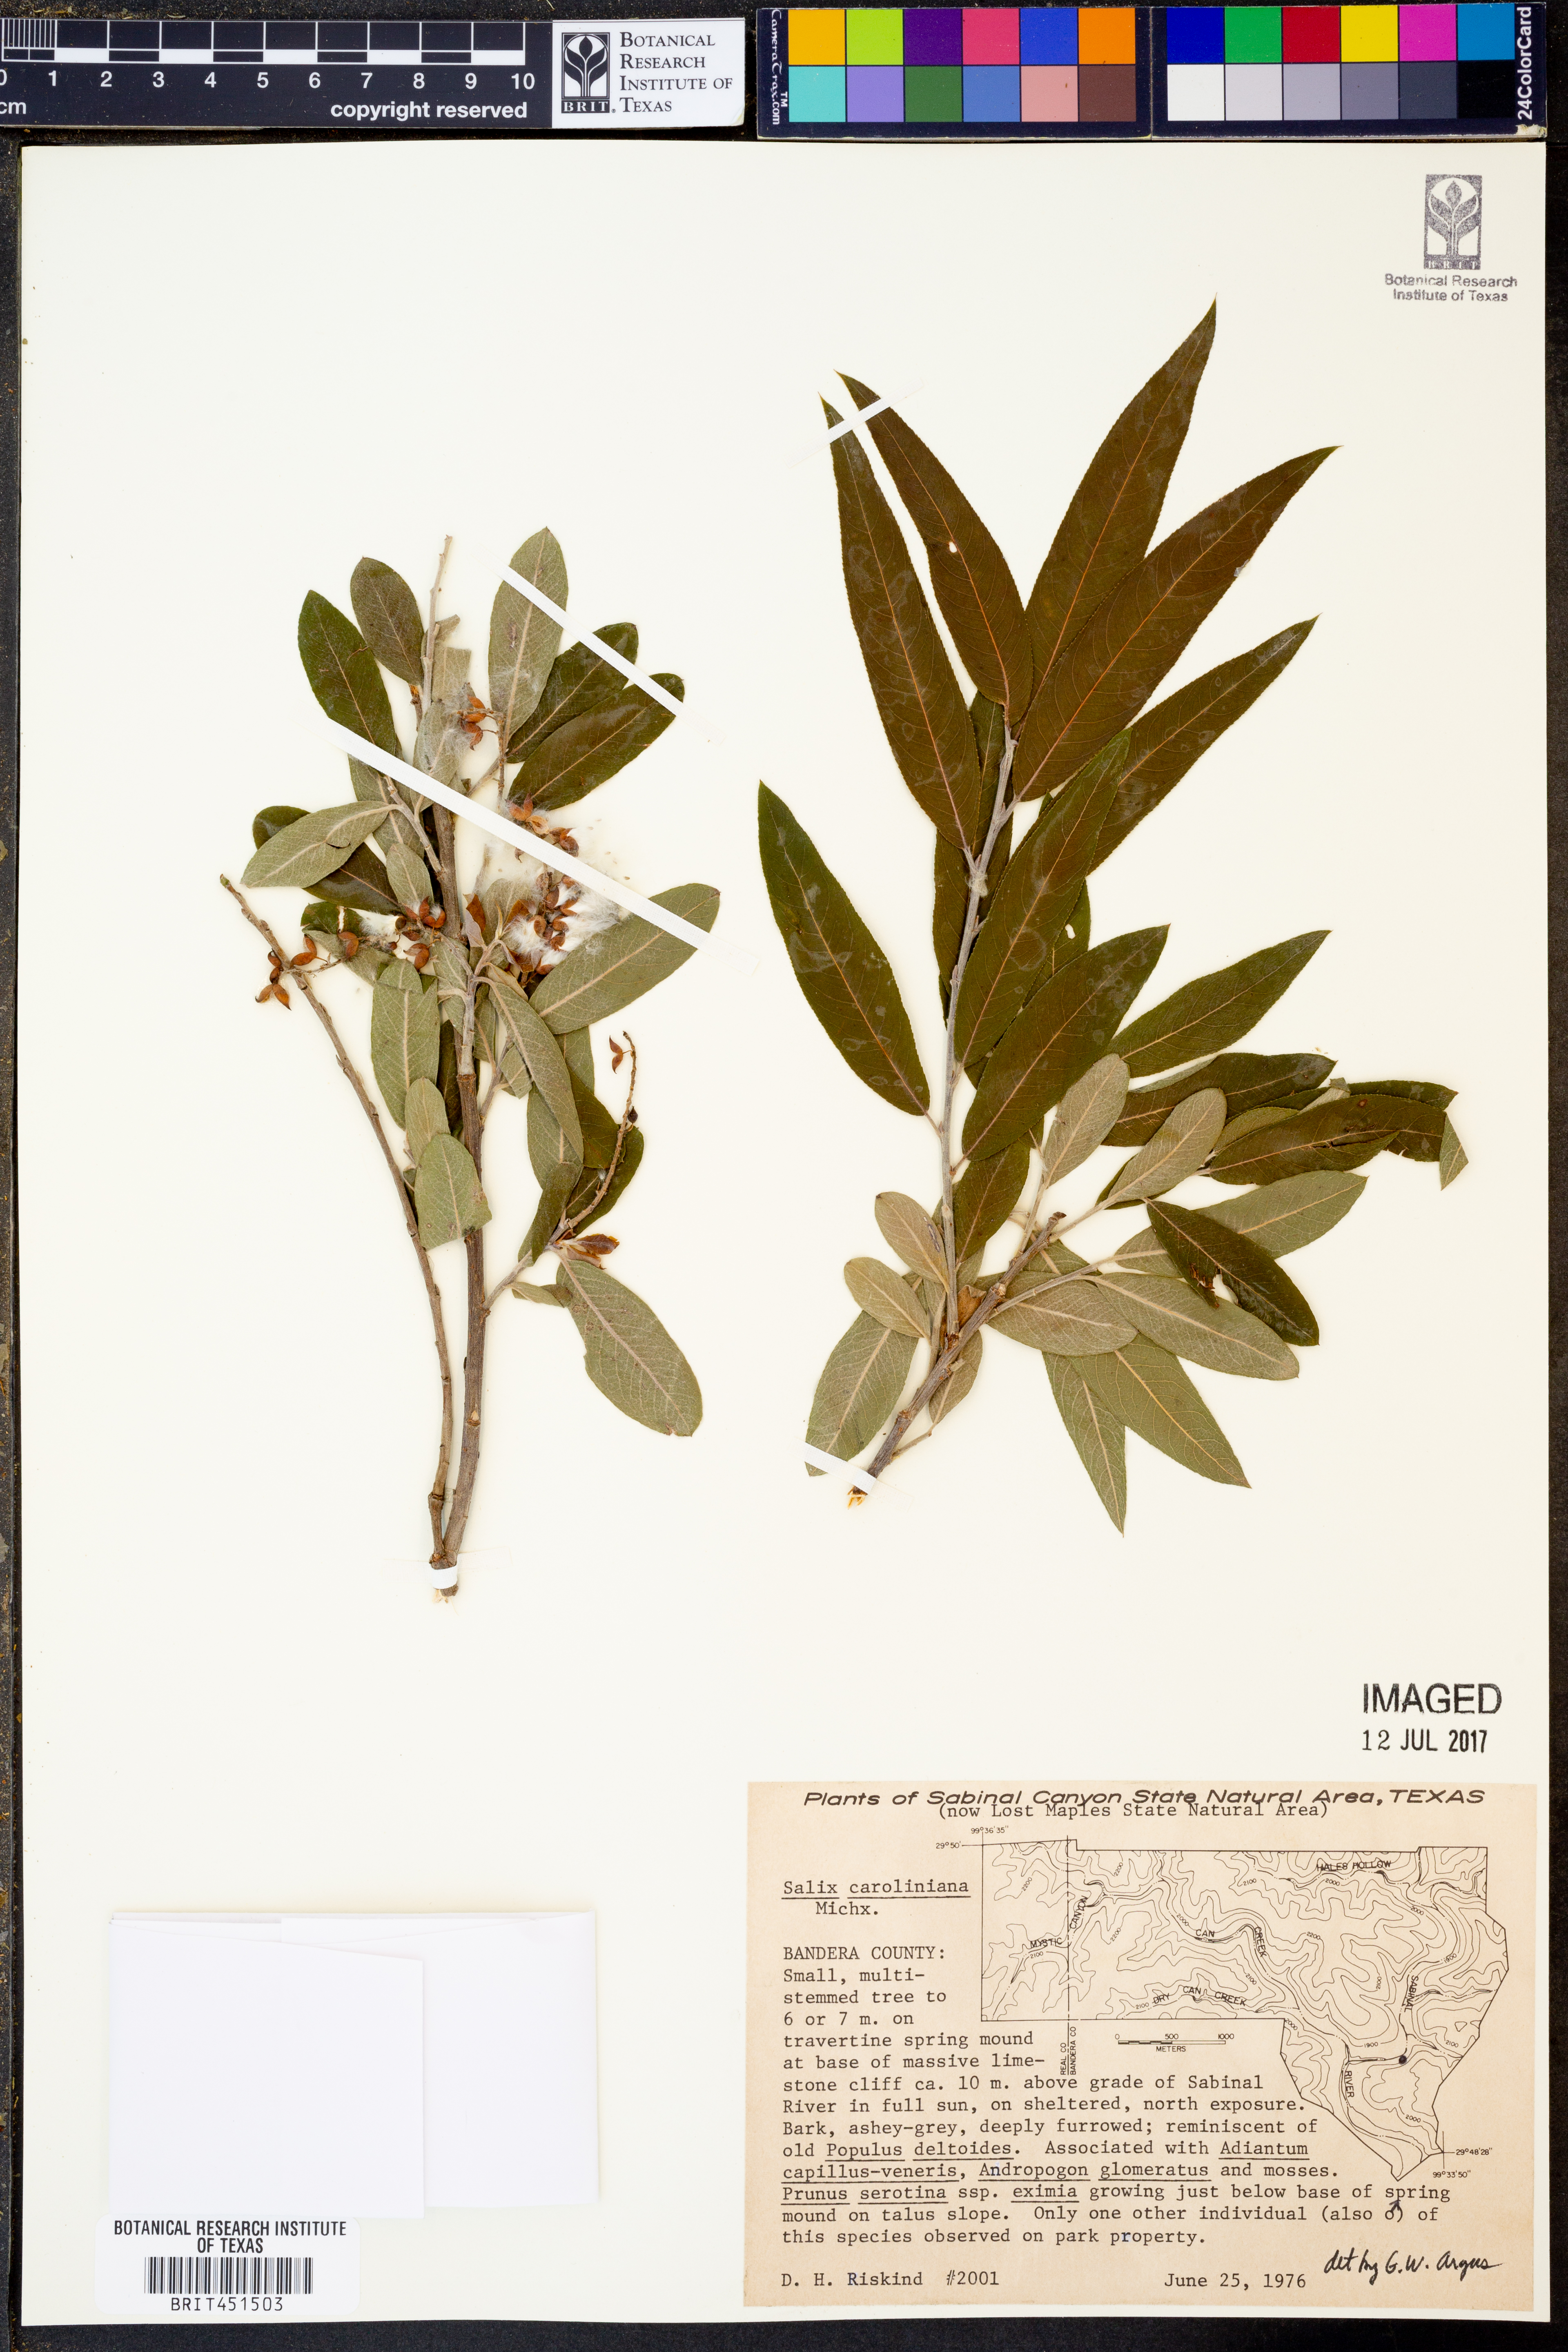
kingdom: Plantae
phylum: Tracheophyta
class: Magnoliopsida
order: Malpighiales
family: Salicaceae
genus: Salix
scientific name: Salix caroliniana
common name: Carolina willow
